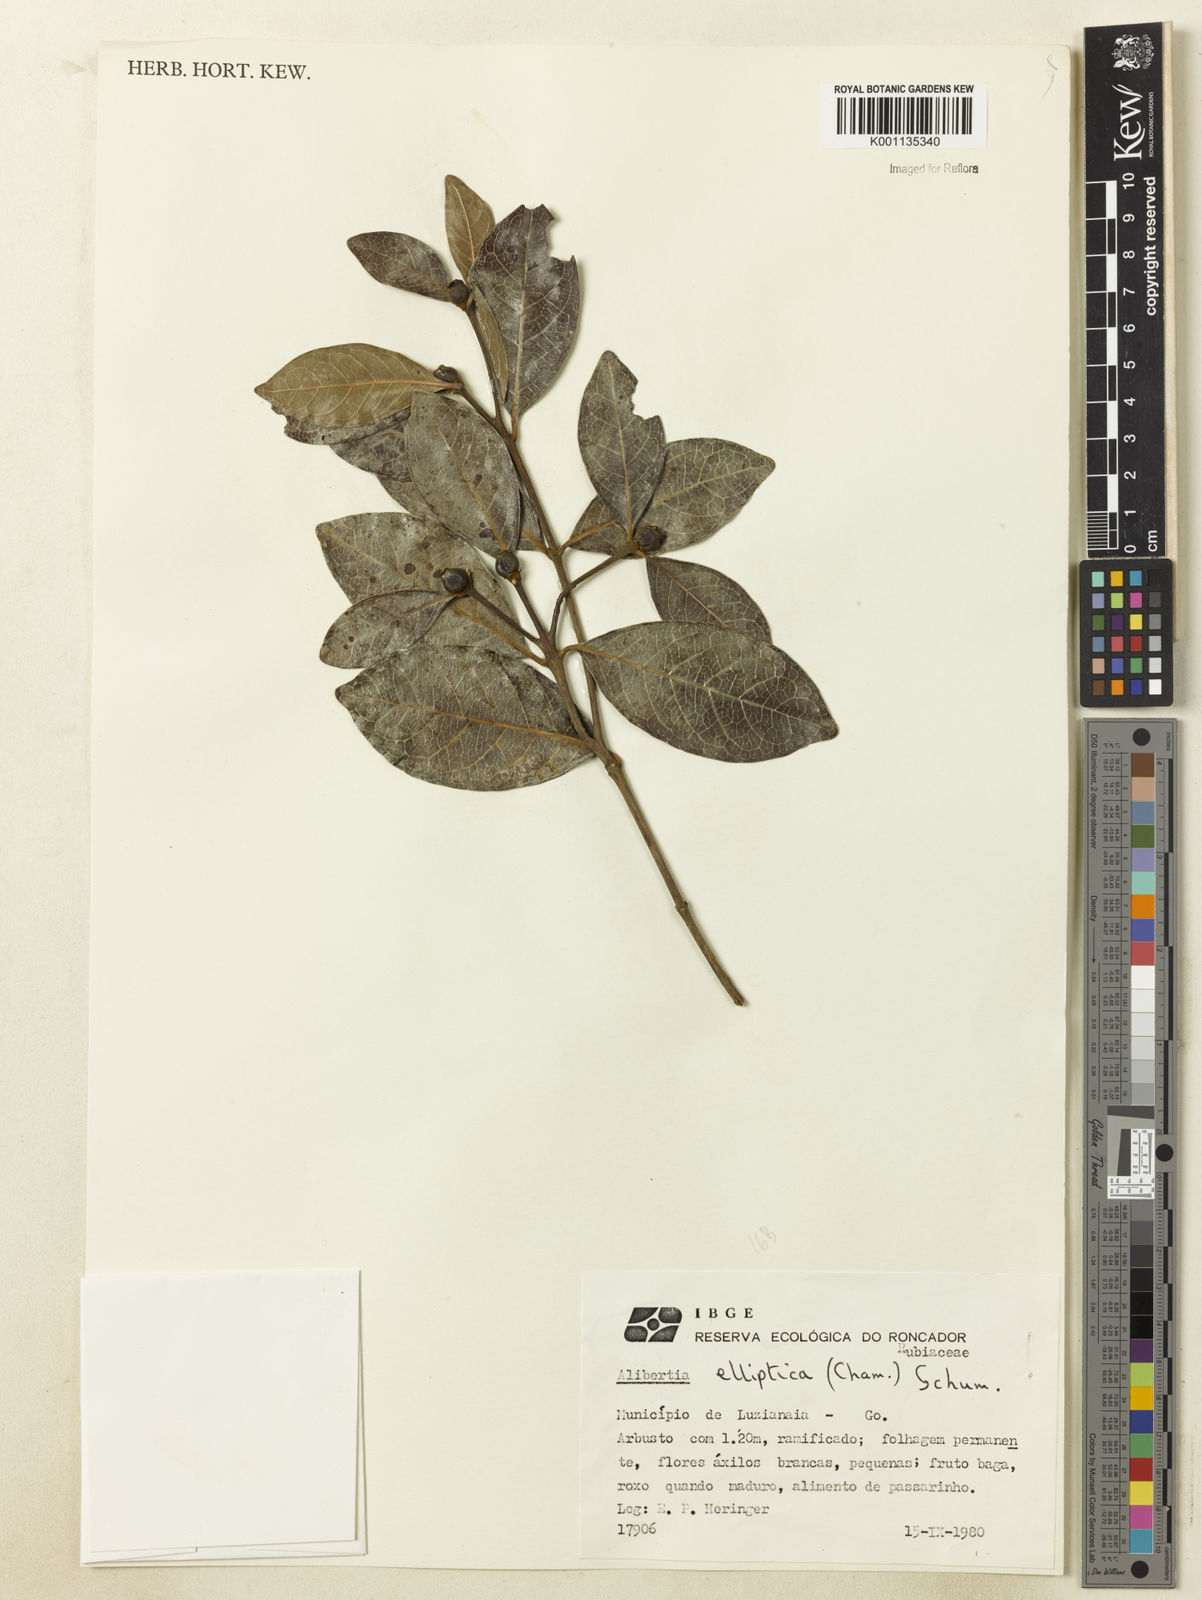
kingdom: Plantae
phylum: Tracheophyta
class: Magnoliopsida
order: Gentianales
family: Rubiaceae
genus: Cordiera
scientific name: Cordiera elliptica
